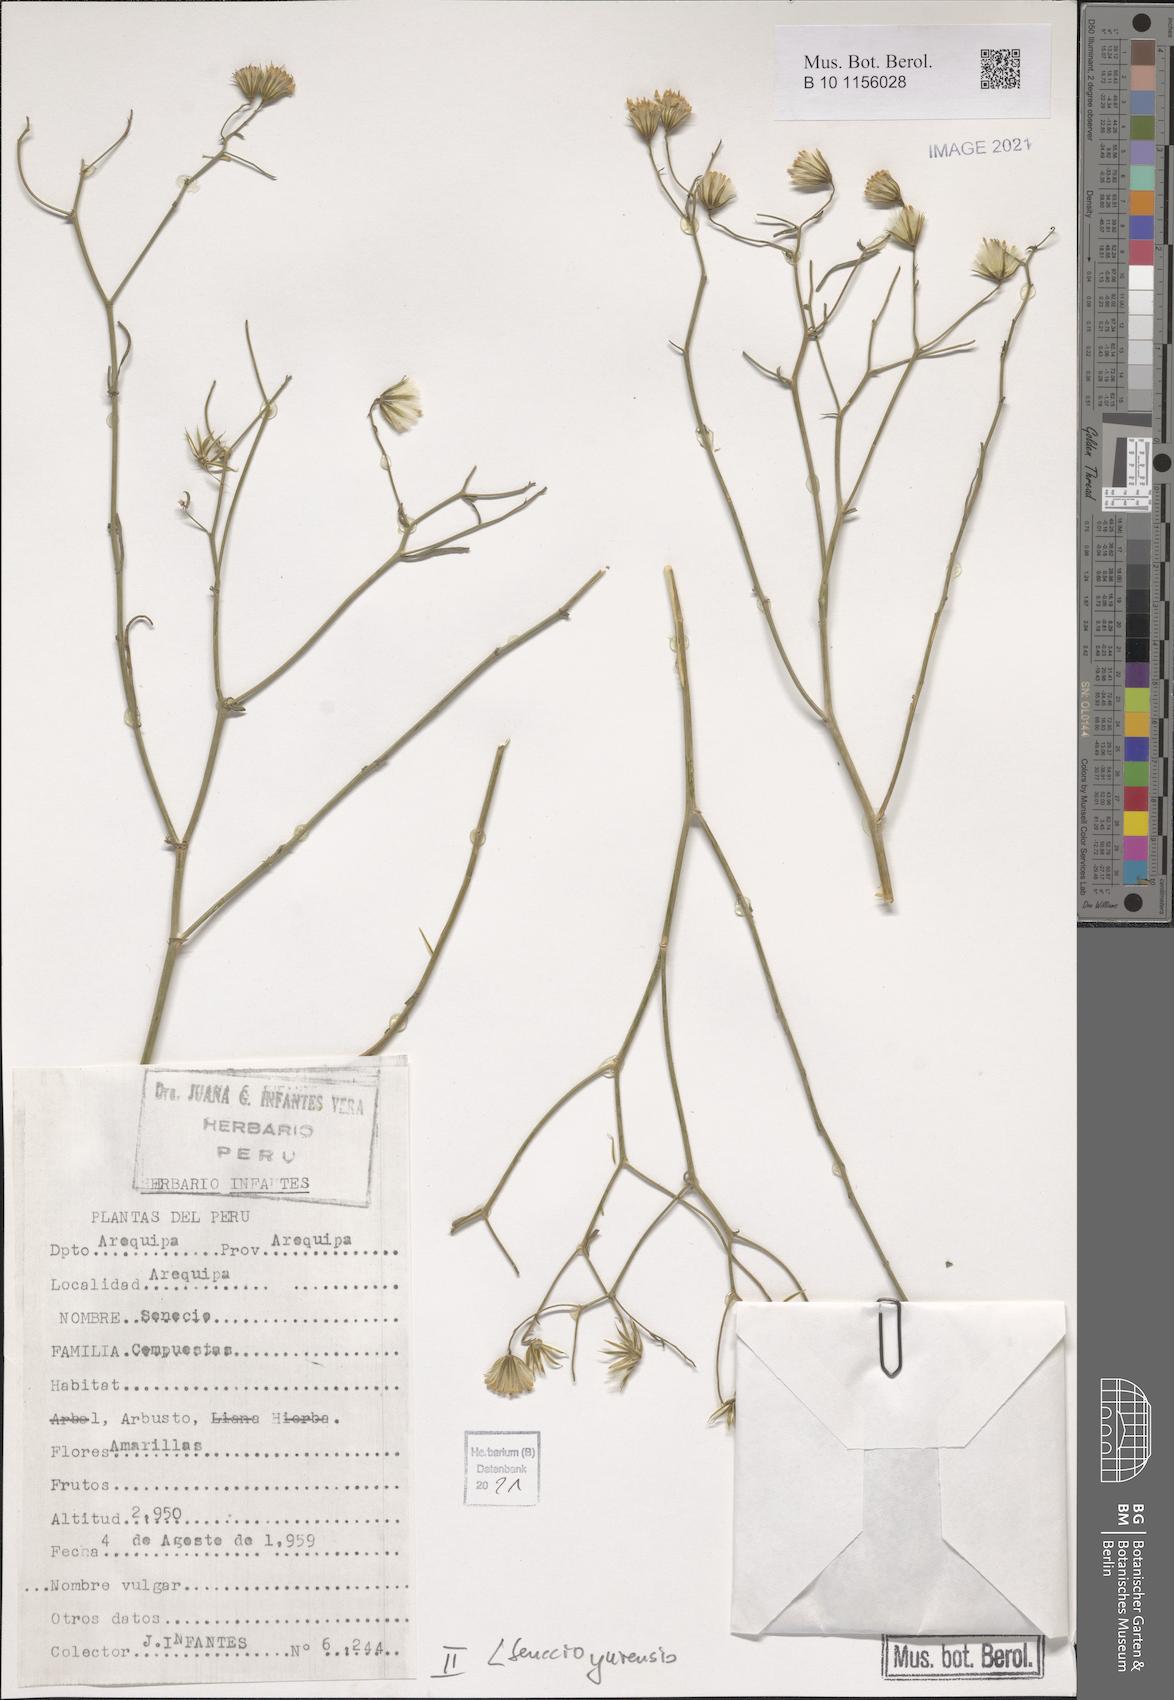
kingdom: Plantae
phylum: Tracheophyta
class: Magnoliopsida
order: Asterales
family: Asteraceae
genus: Senecio
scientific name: Senecio yurensis
